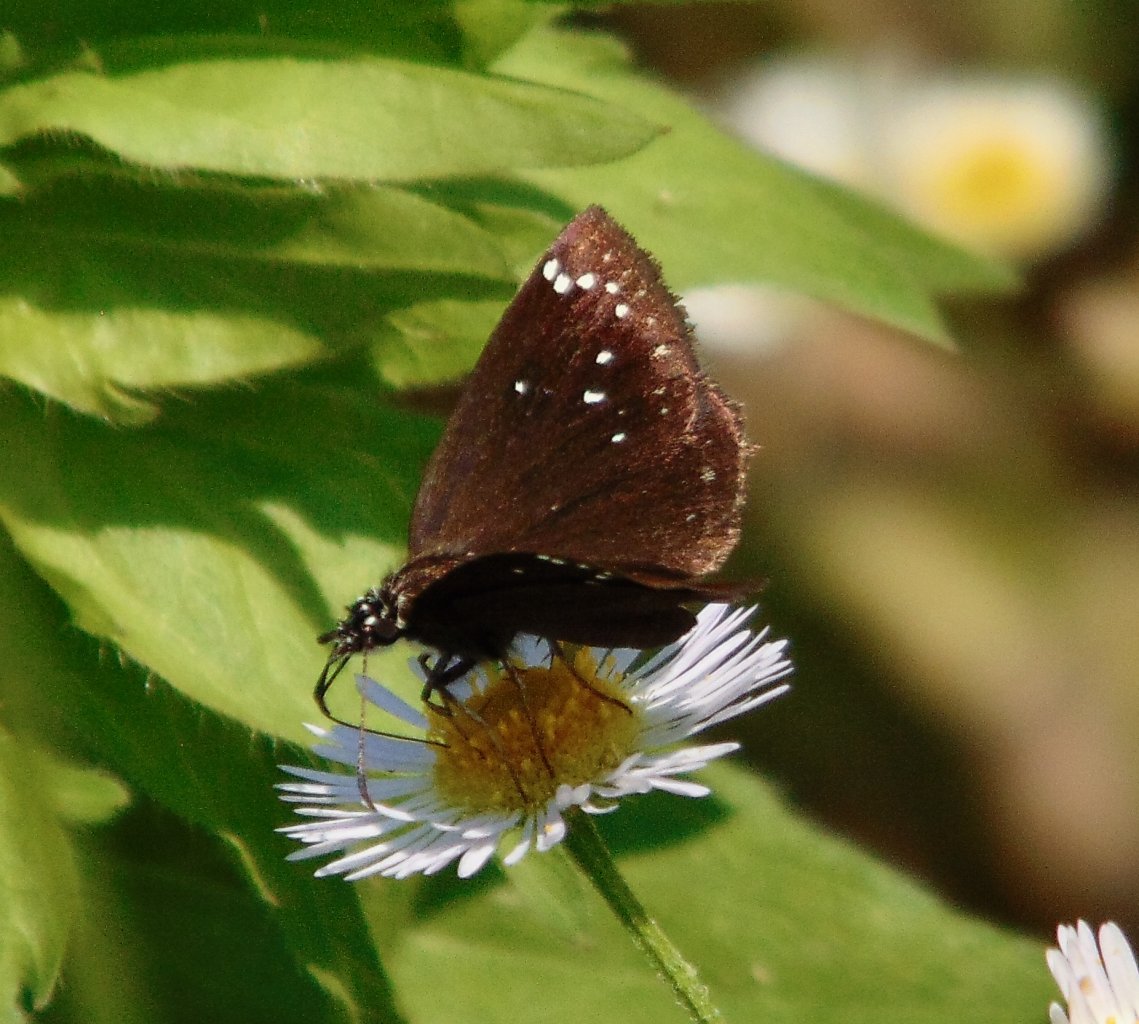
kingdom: Animalia
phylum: Arthropoda
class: Insecta
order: Lepidoptera
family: Hesperiidae
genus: Pholisora
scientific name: Pholisora catullus
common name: Common Sootywing
